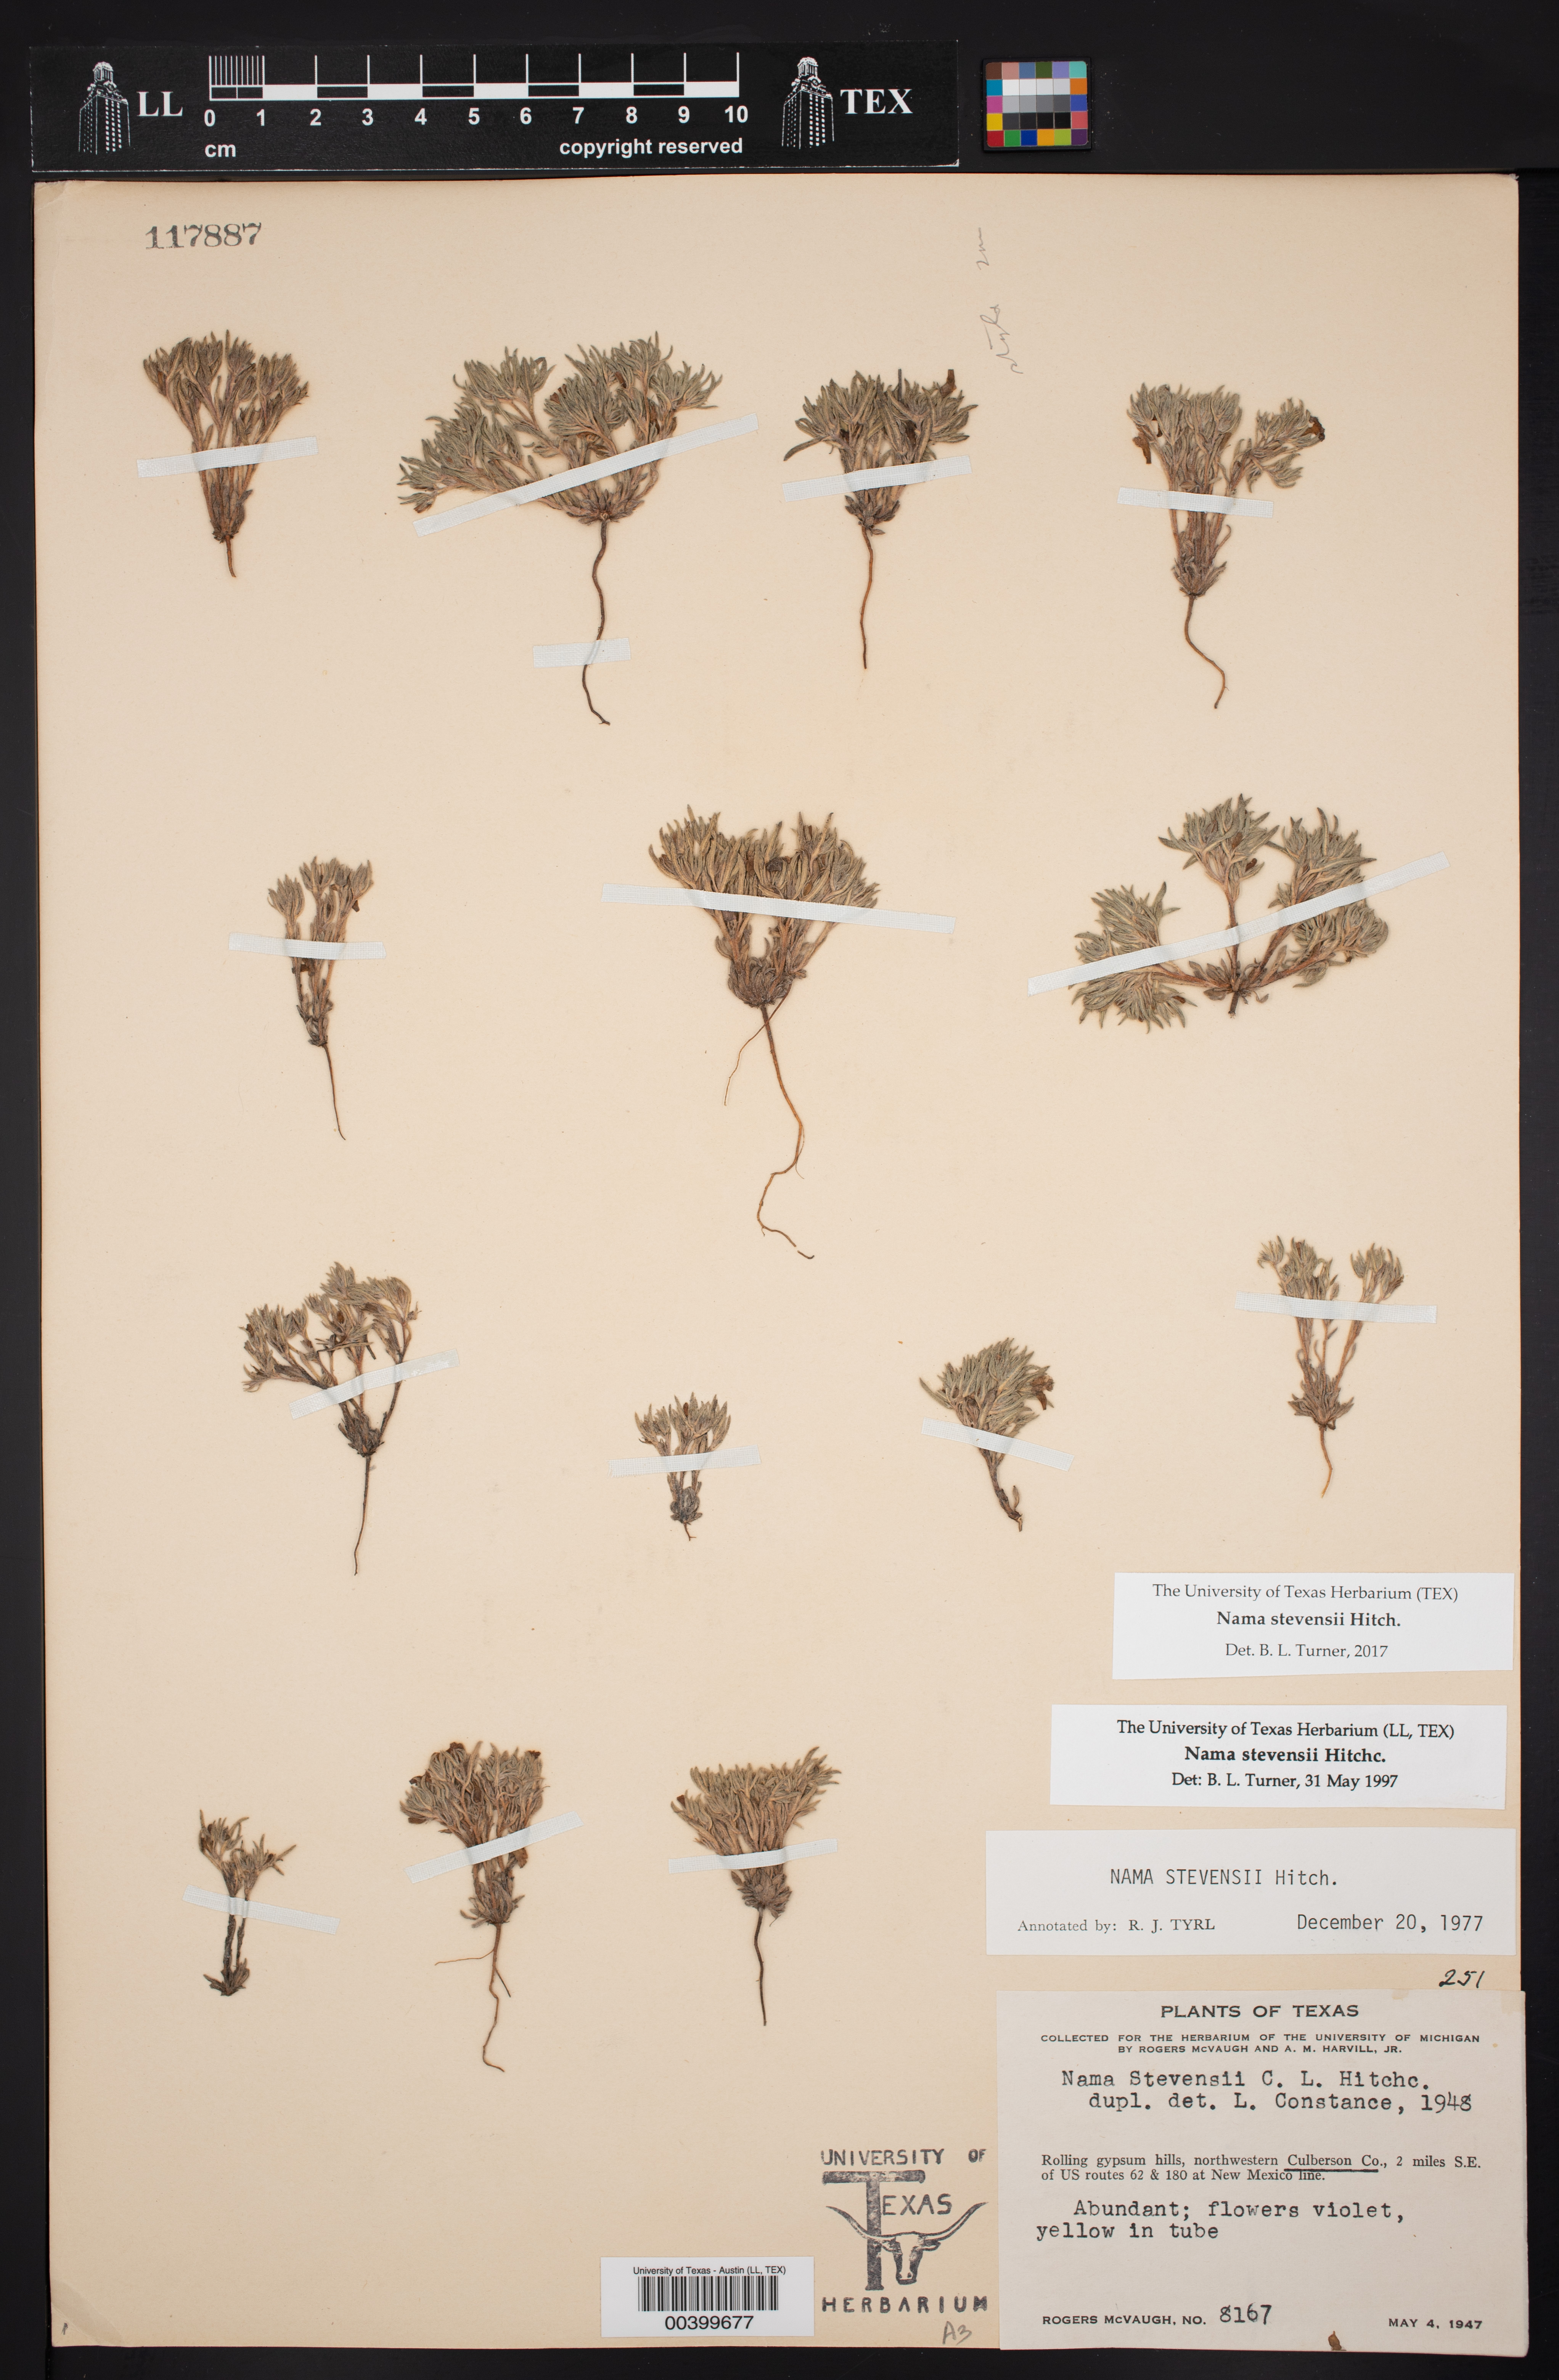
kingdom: Plantae
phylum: Tracheophyta
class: Magnoliopsida
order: Boraginales
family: Namaceae
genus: Nama
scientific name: Nama stevensii
